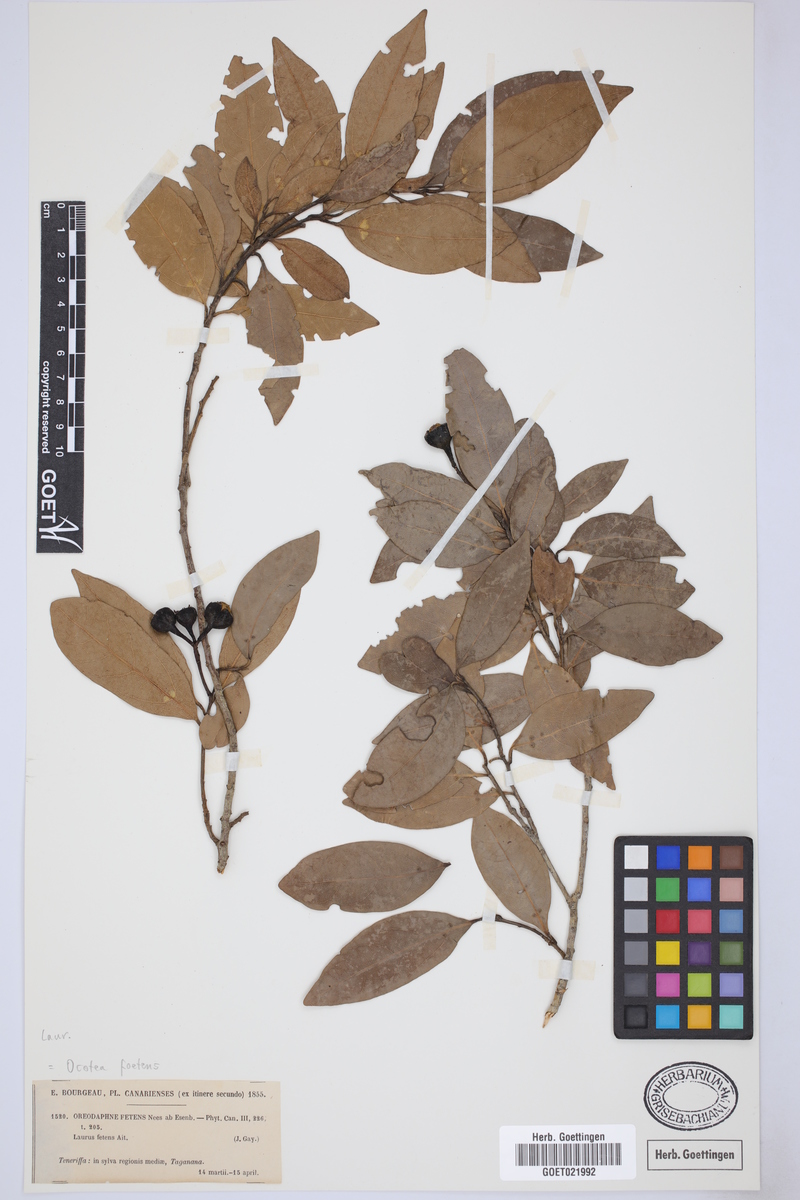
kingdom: Plantae
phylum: Tracheophyta
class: Magnoliopsida
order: Laurales
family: Lauraceae
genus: Mespilodaphne
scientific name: Mespilodaphne foetens
